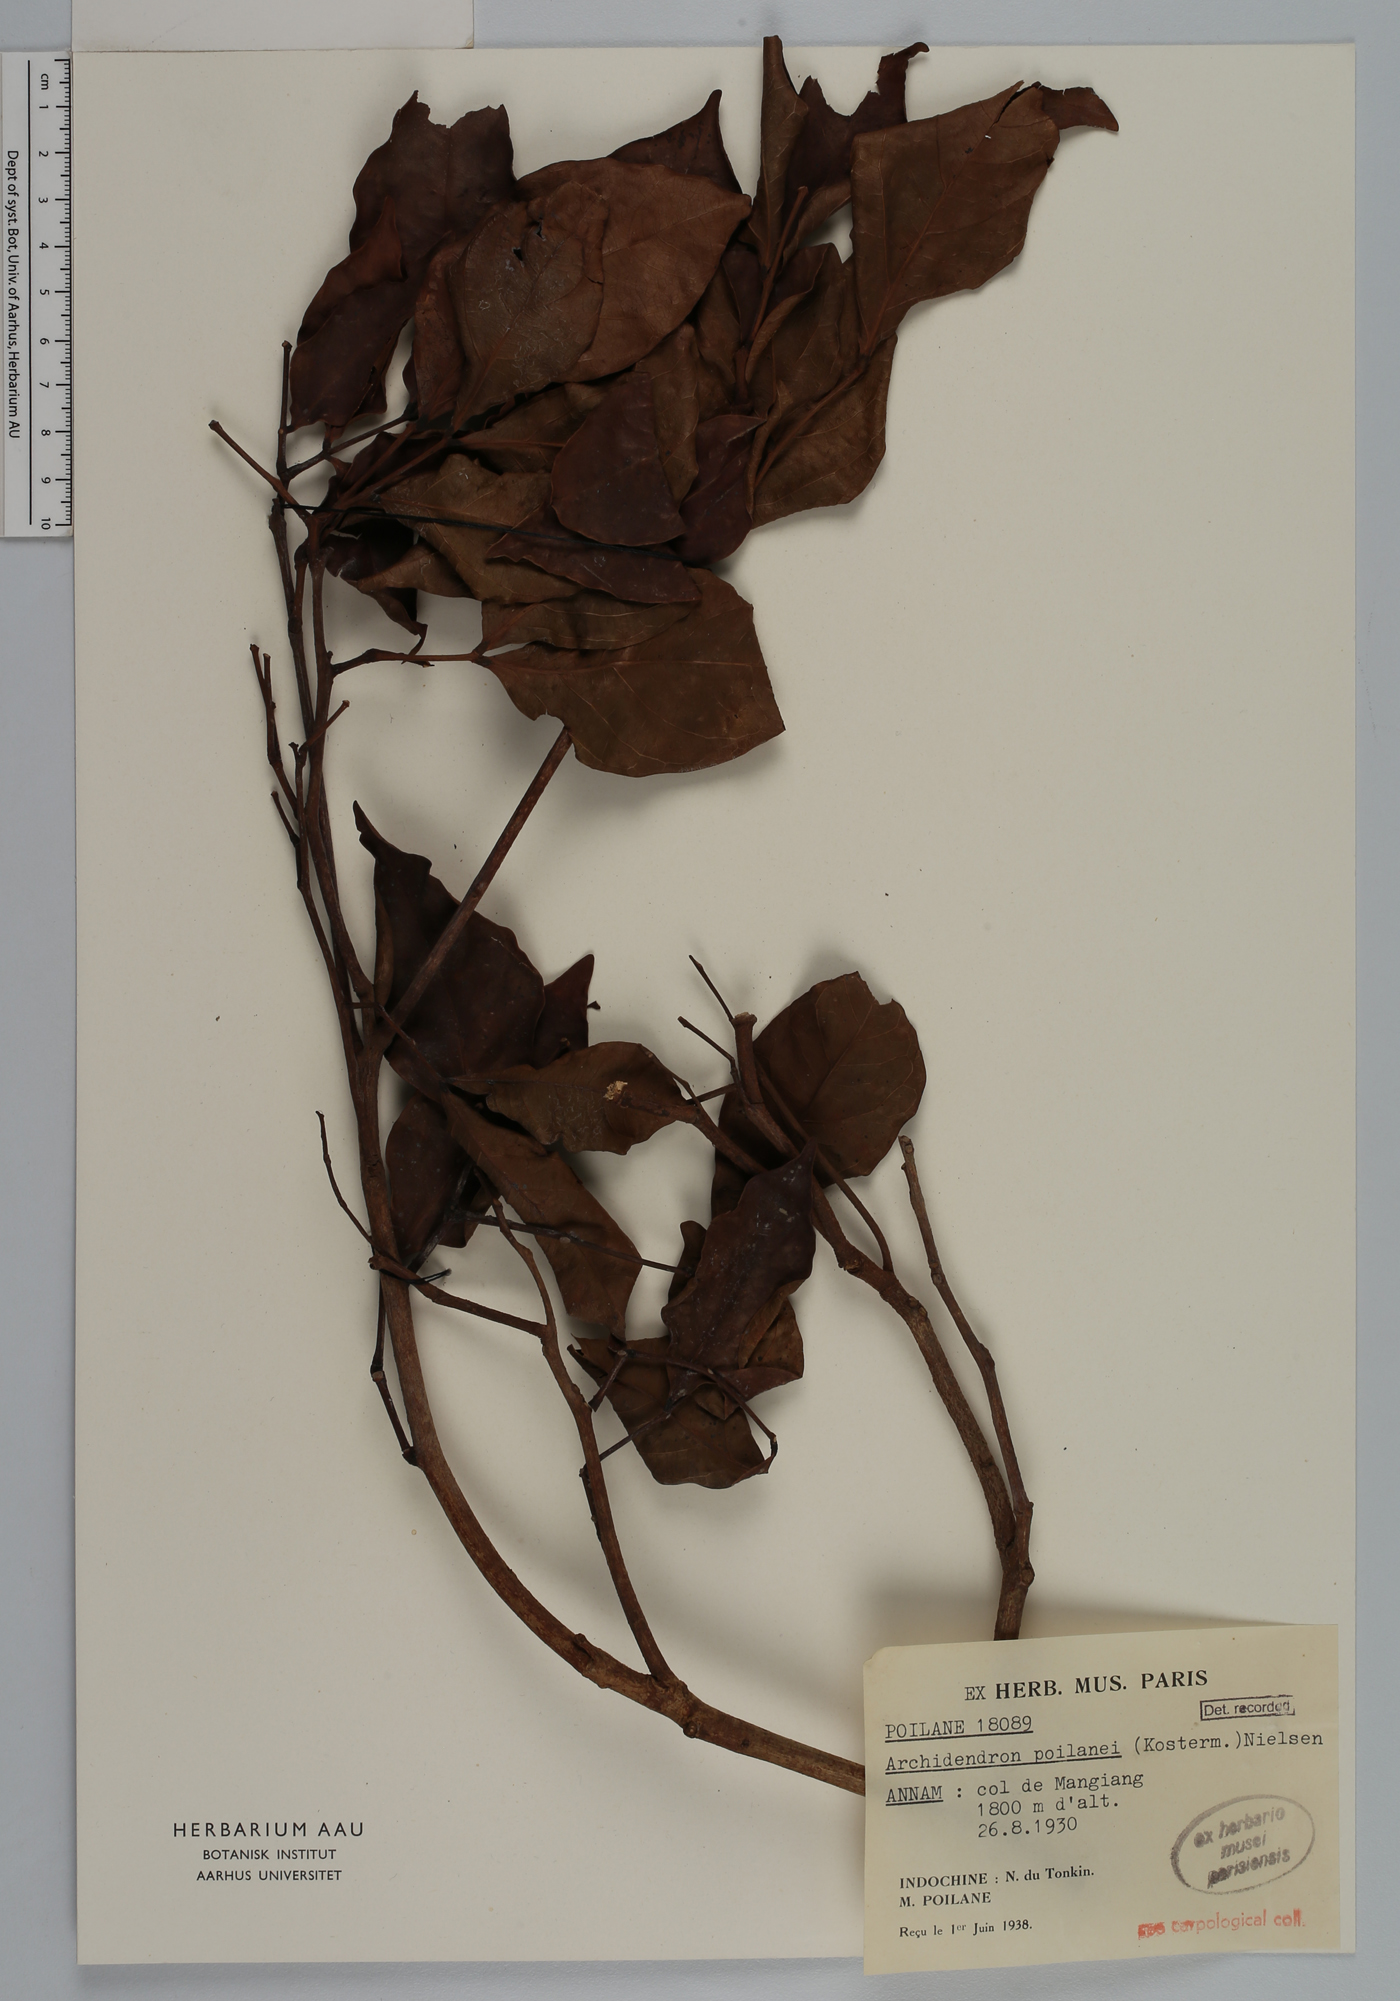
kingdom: Plantae
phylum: Tracheophyta
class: Magnoliopsida
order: Fabales
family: Fabaceae
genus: Archidendron
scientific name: Archidendron poilanei
